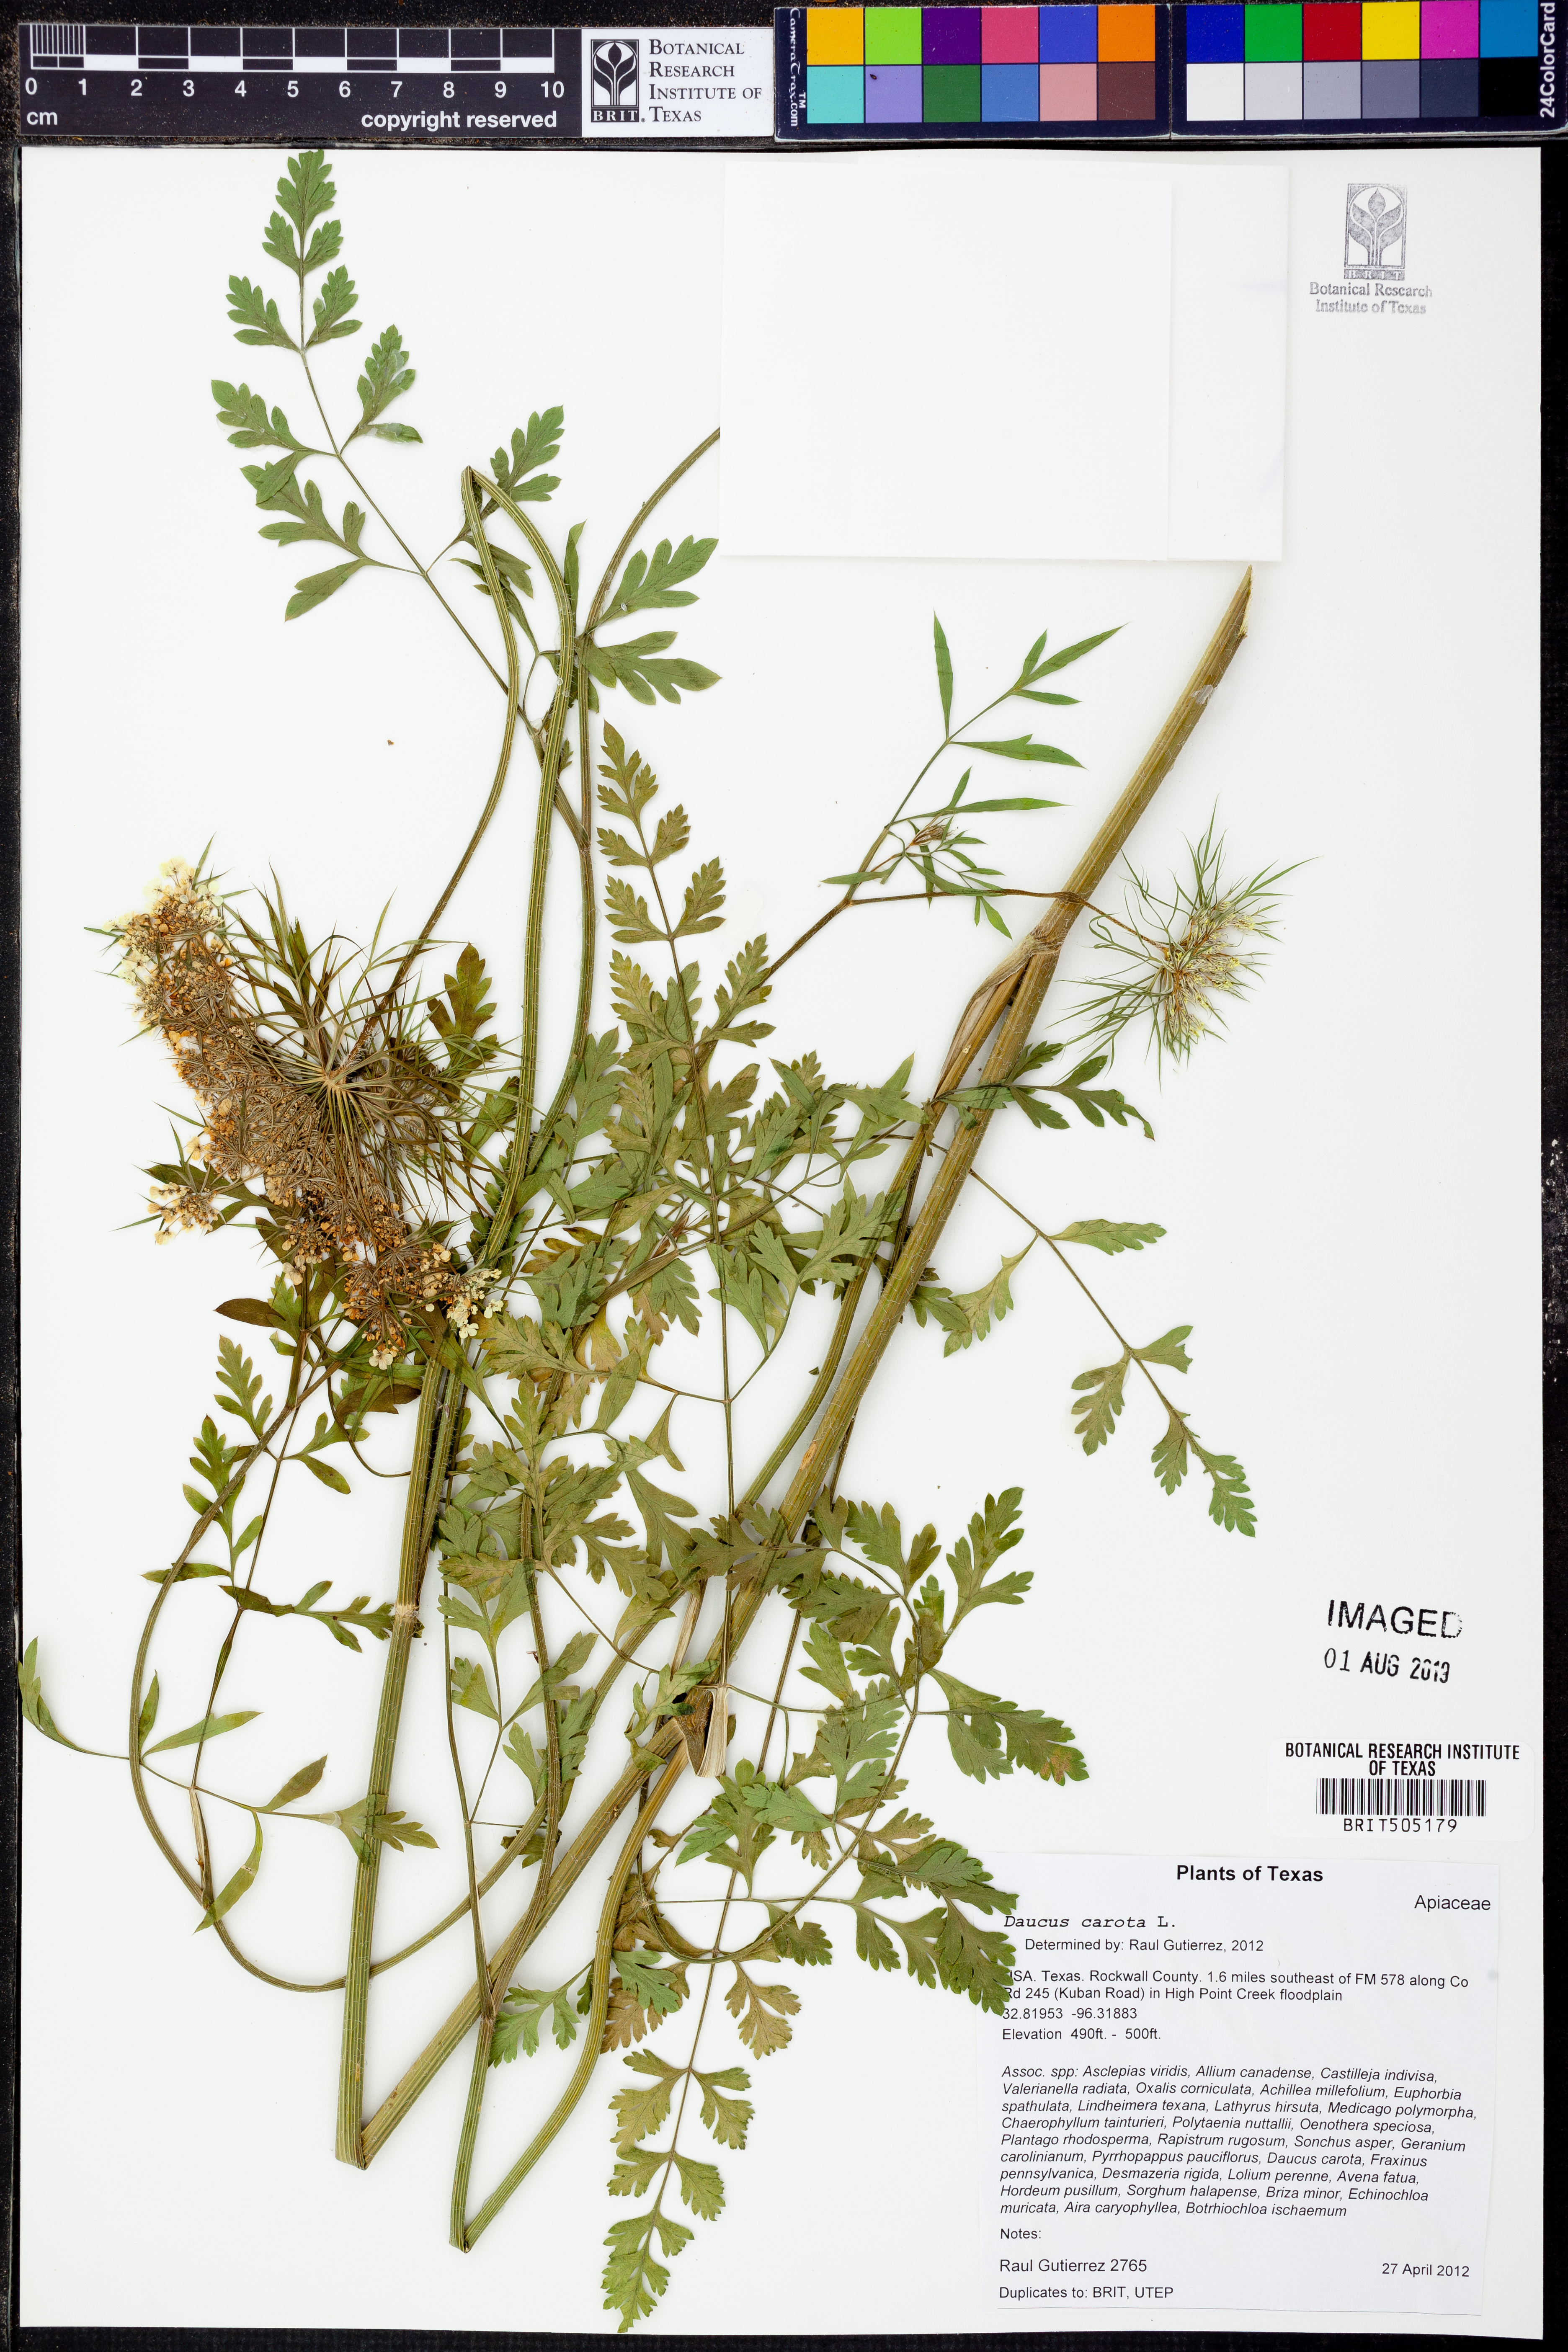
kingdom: Plantae
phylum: Tracheophyta
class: Magnoliopsida
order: Apiales
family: Apiaceae
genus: Daucus
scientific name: Daucus carota
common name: Wild carrot
